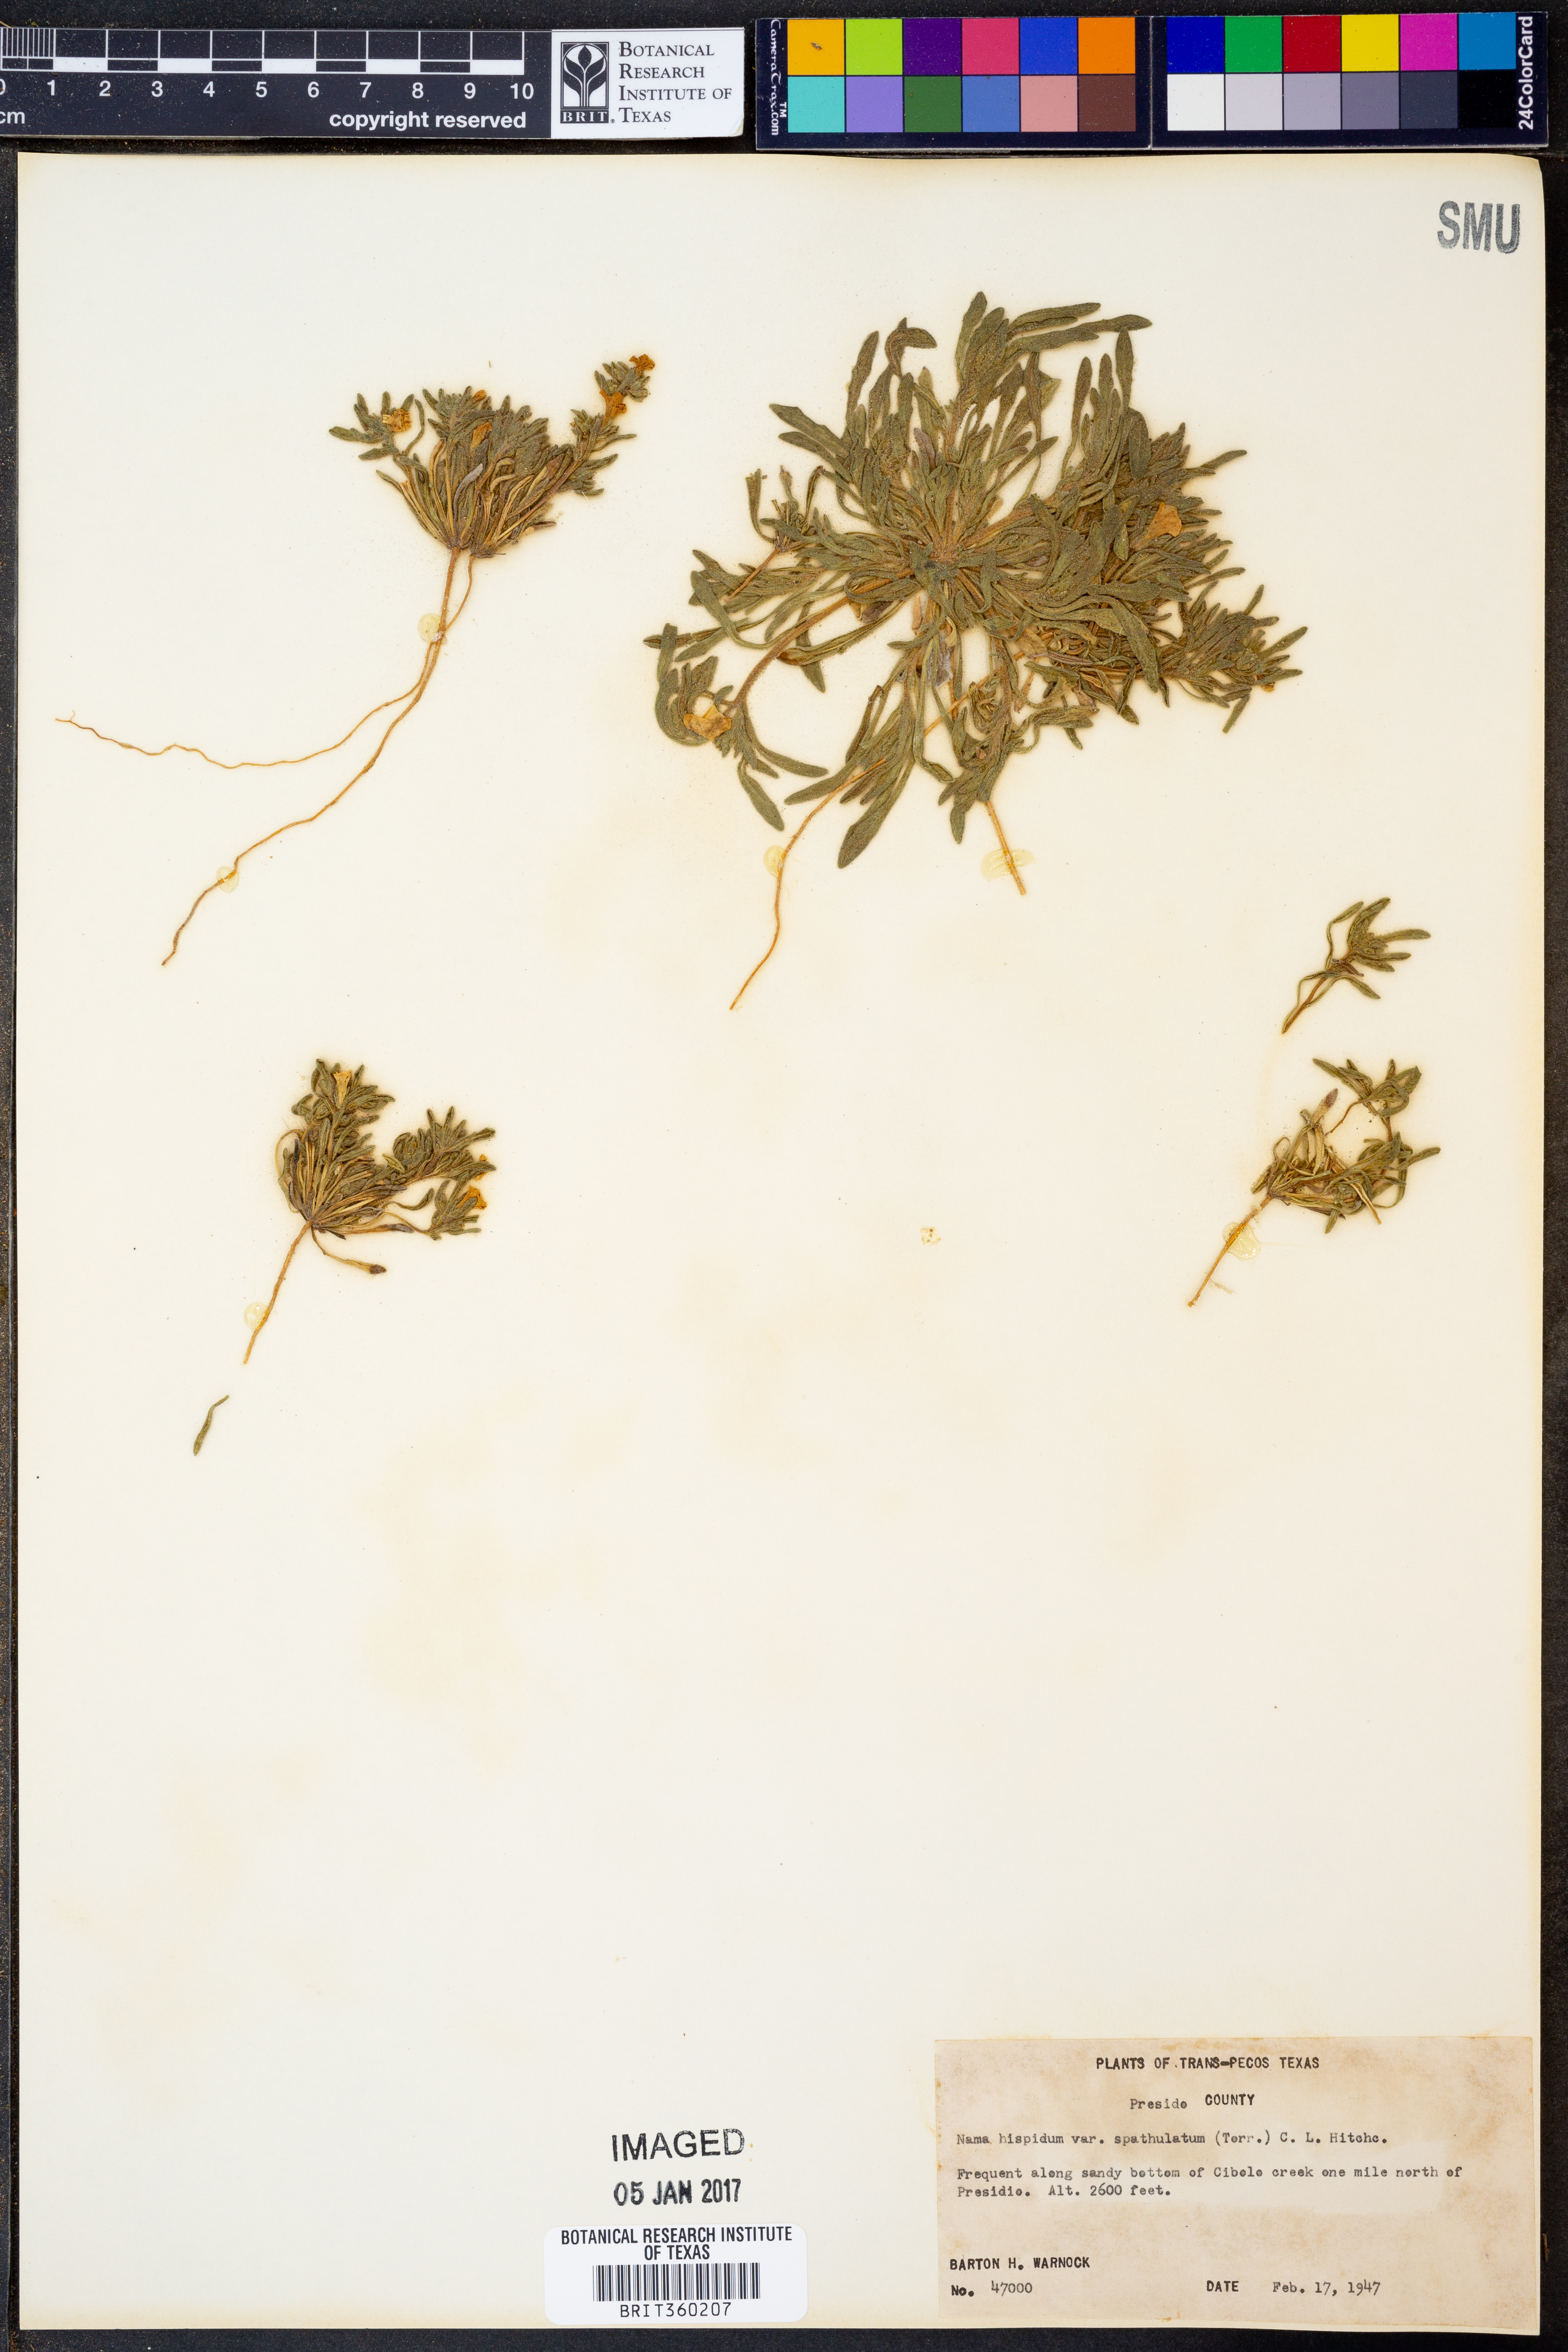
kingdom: Plantae
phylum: Tracheophyta
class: Magnoliopsida
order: Boraginales
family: Namaceae
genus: Nama
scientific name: Nama hispida
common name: Bristly nama
